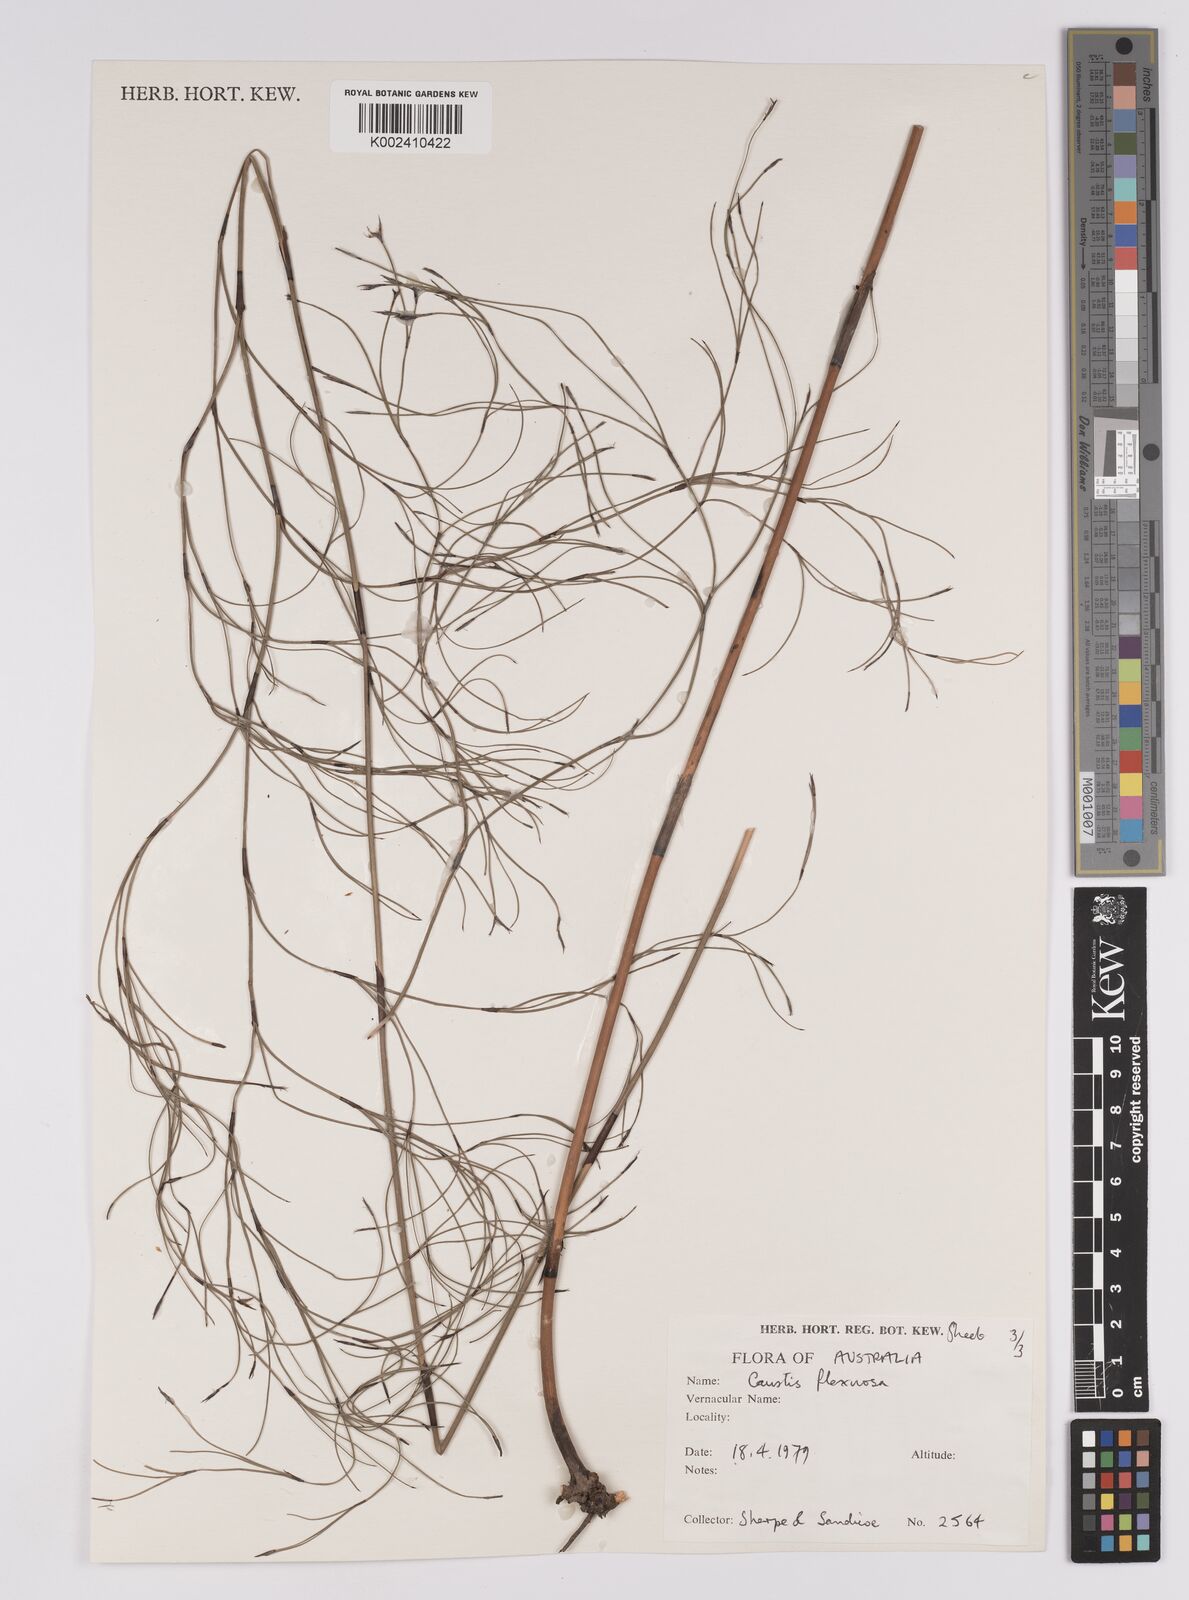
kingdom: Plantae
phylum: Tracheophyta
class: Liliopsida
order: Poales
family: Cyperaceae
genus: Caustis
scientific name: Caustis flexuosa
